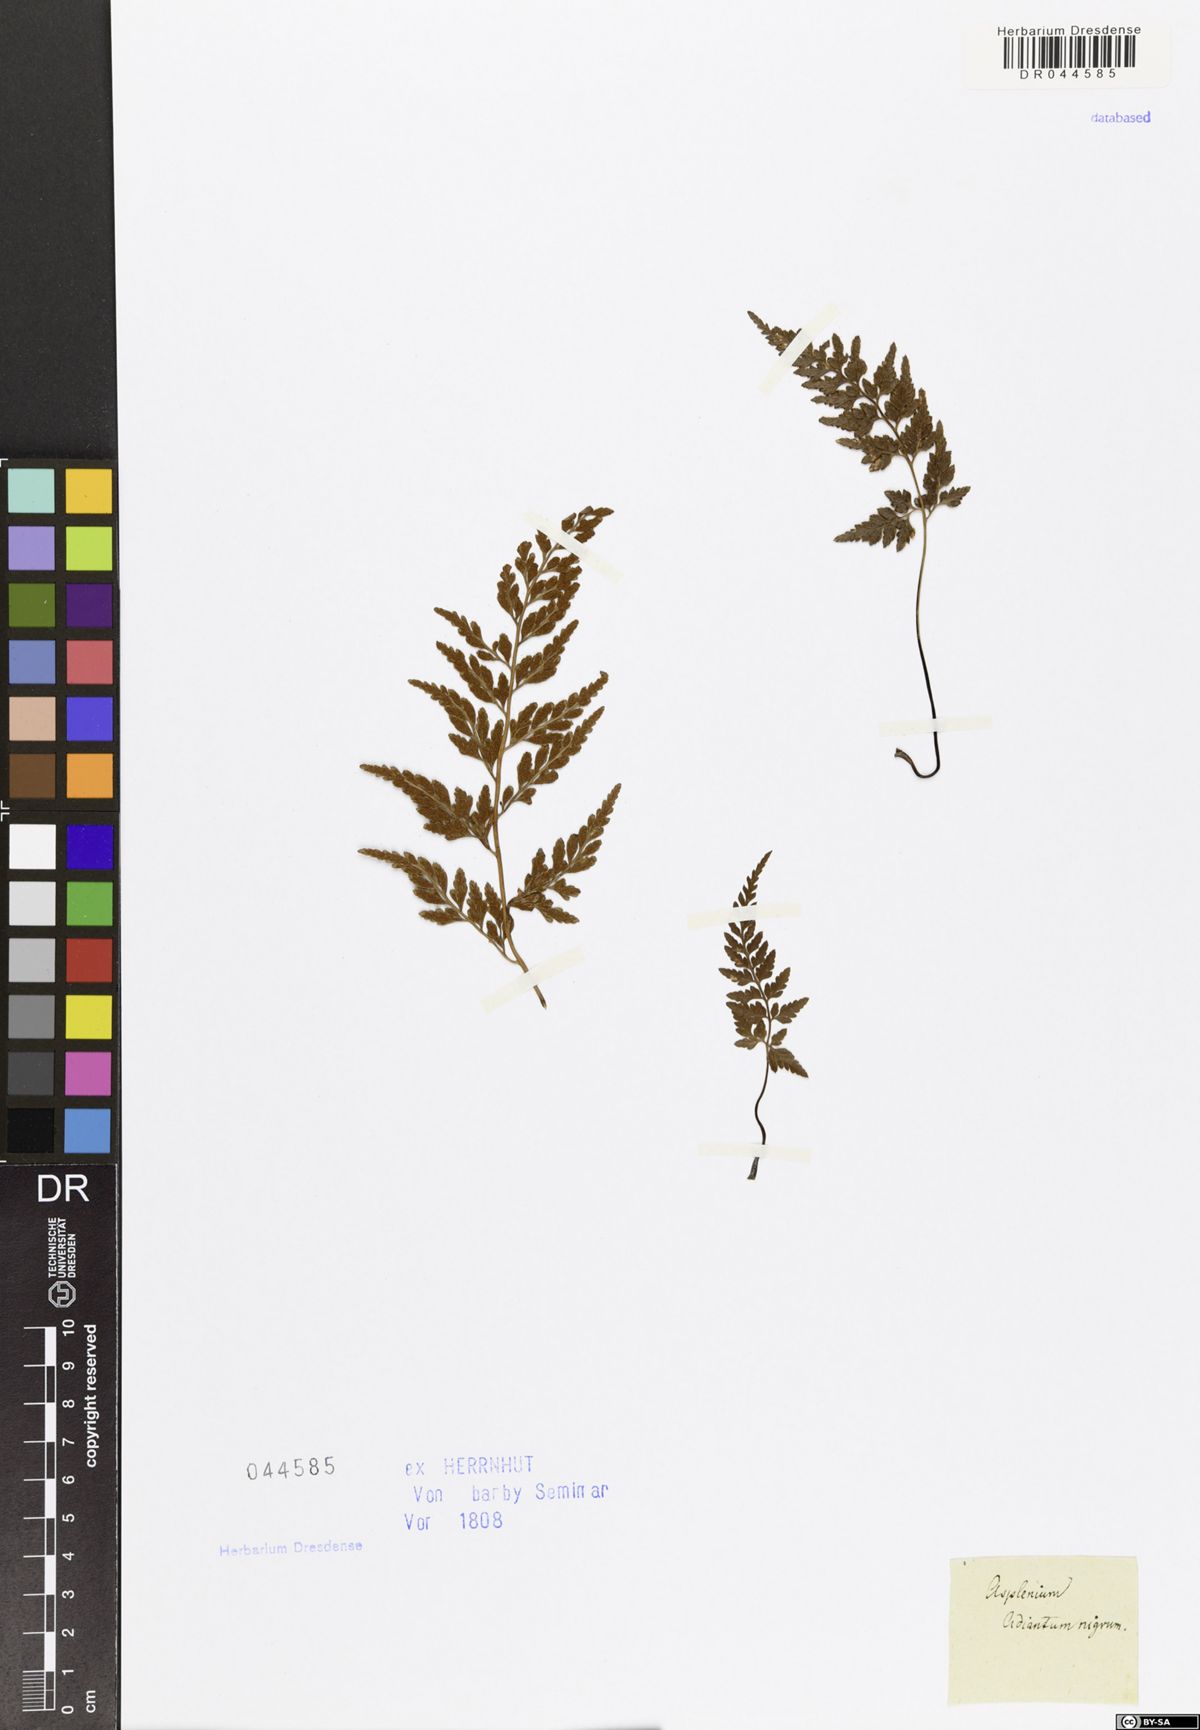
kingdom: Plantae
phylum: Tracheophyta
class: Polypodiopsida
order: Polypodiales
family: Aspleniaceae
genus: Asplenium
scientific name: Asplenium adiantum-nigrum
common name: Black spleenwort
